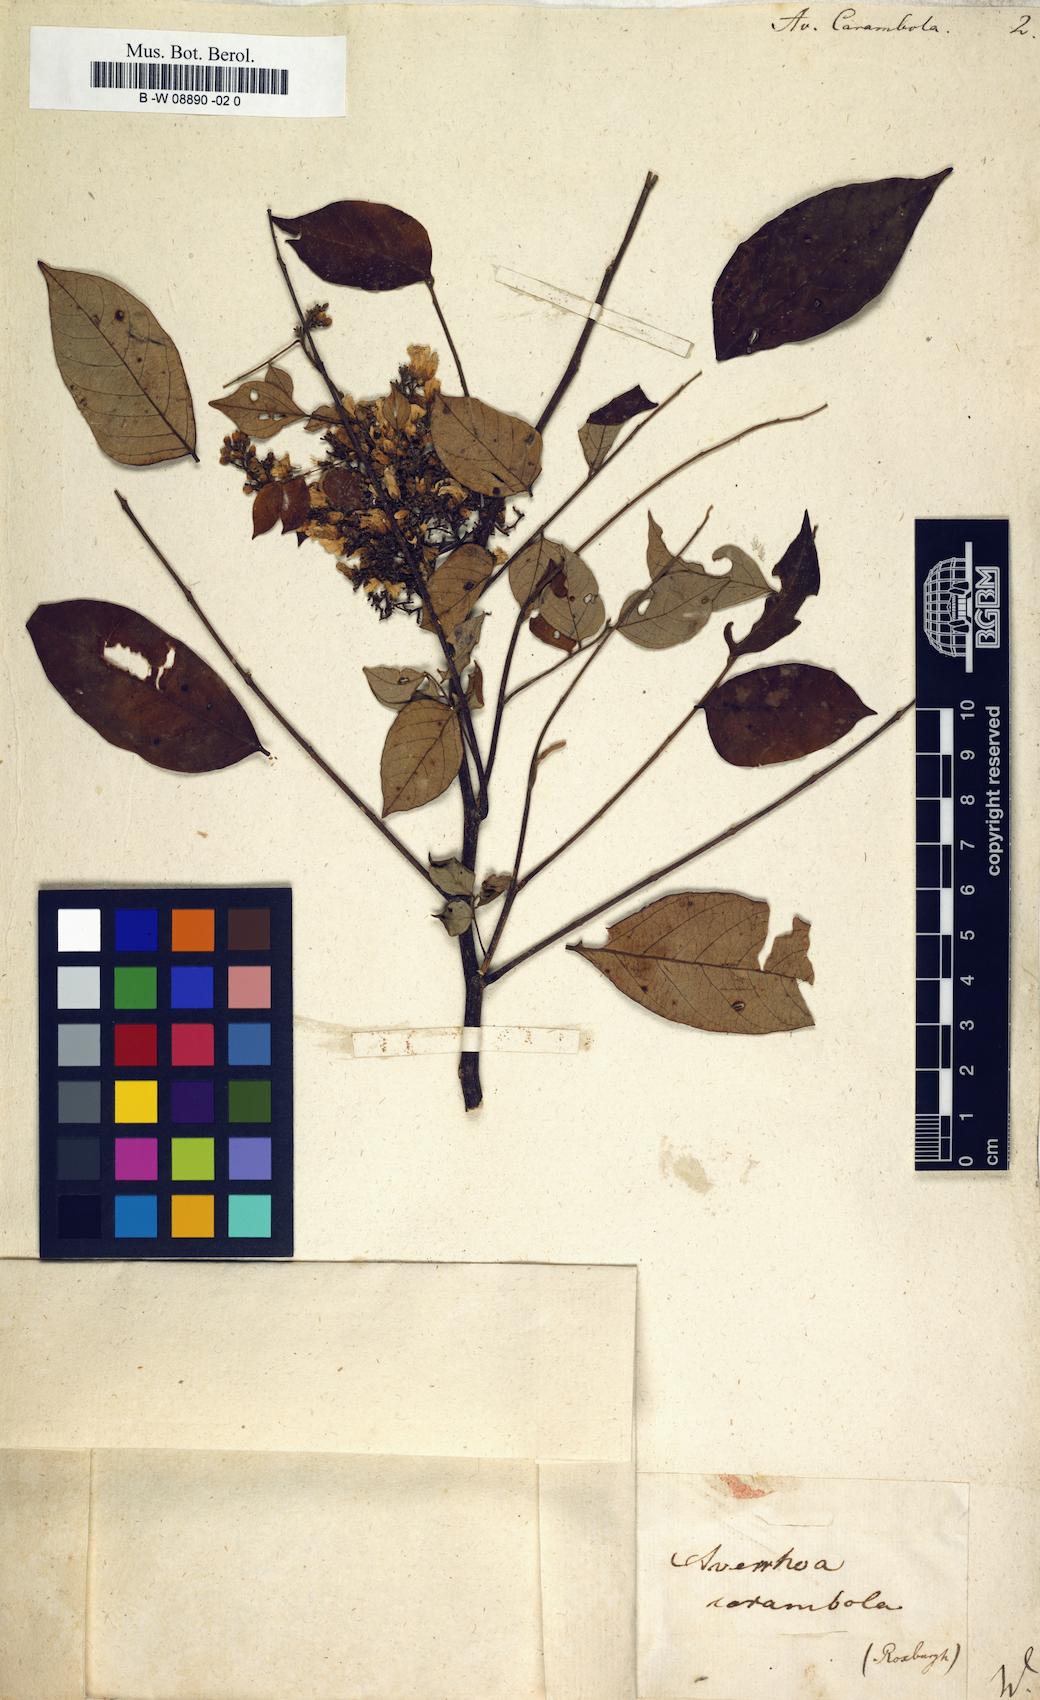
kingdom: Plantae
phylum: Tracheophyta
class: Magnoliopsida
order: Oxalidales
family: Oxalidaceae
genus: Averrhoa
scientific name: Averrhoa carambola
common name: Blimbing
